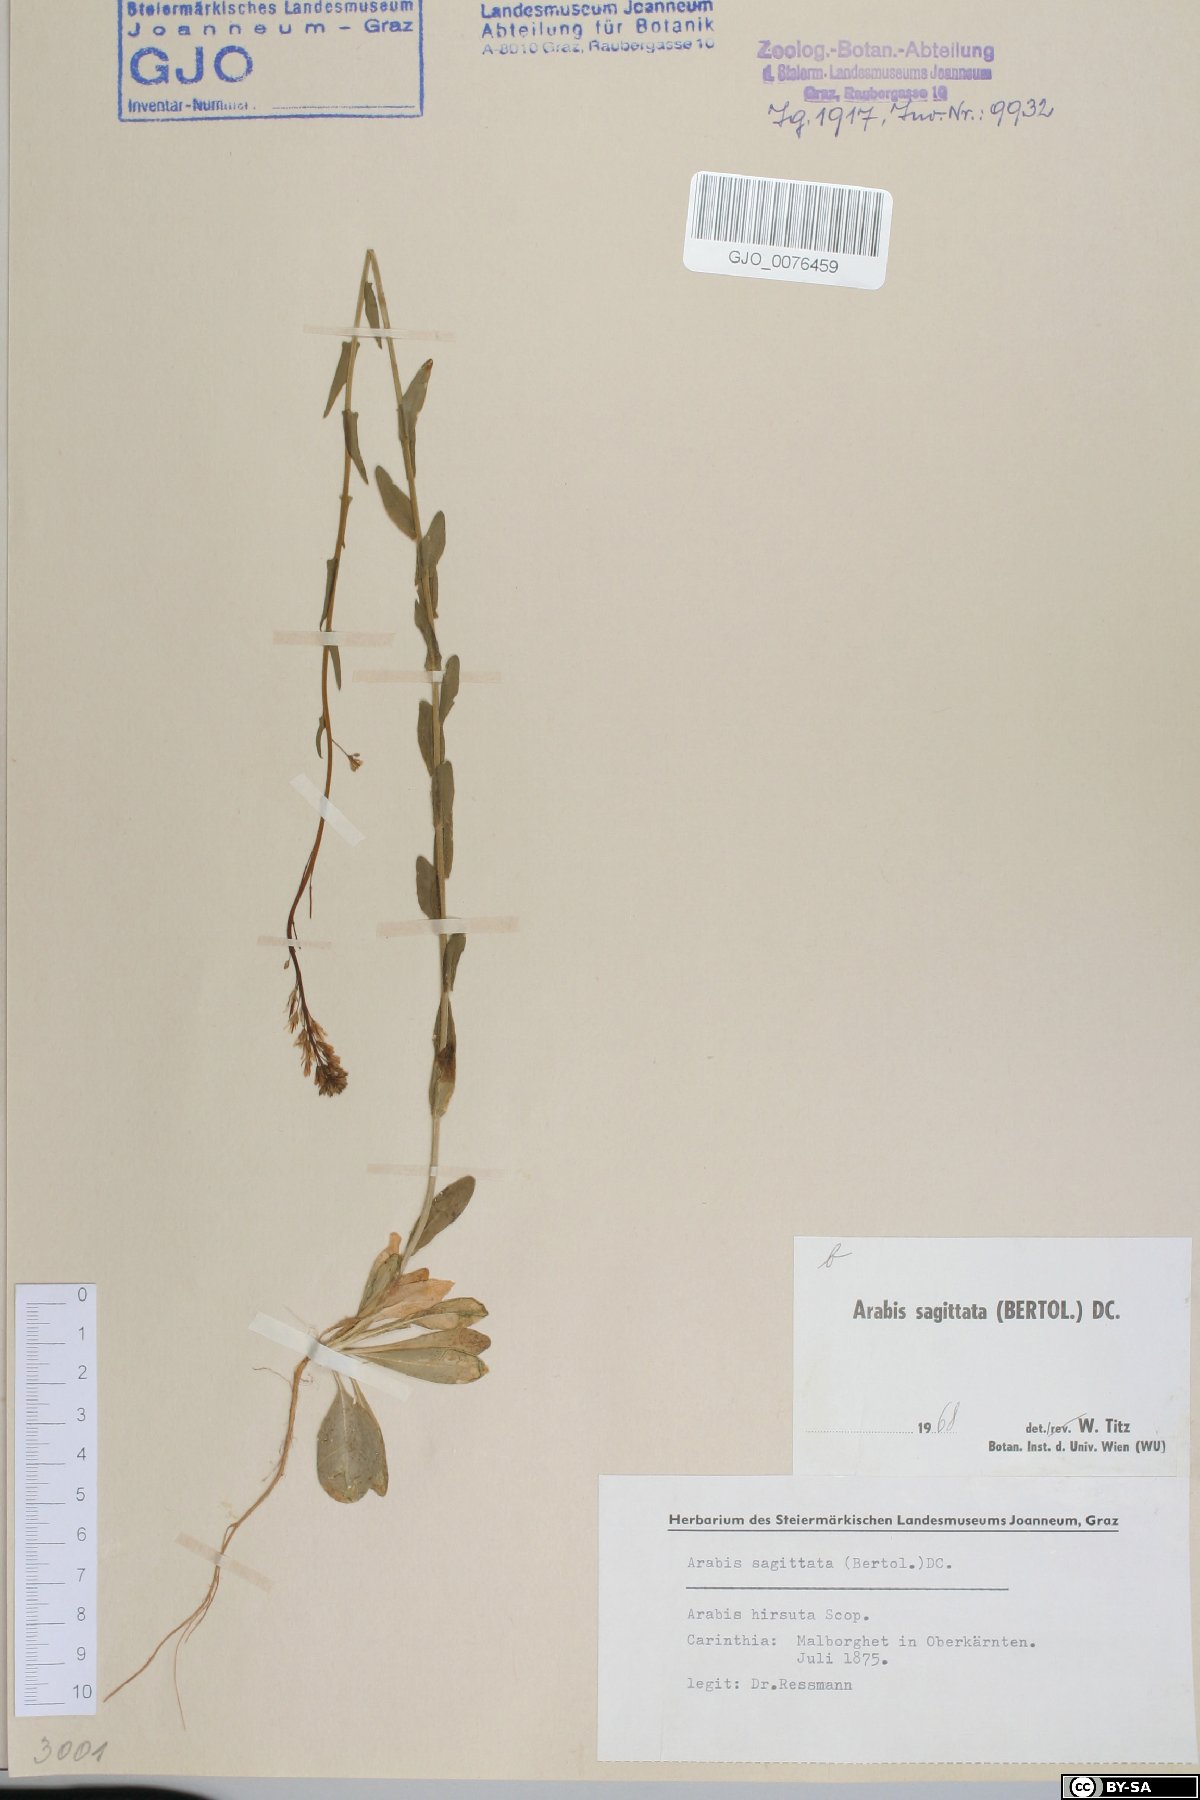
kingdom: Plantae
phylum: Tracheophyta
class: Magnoliopsida
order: Brassicales
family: Brassicaceae
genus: Arabis
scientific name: Arabis sagittata
